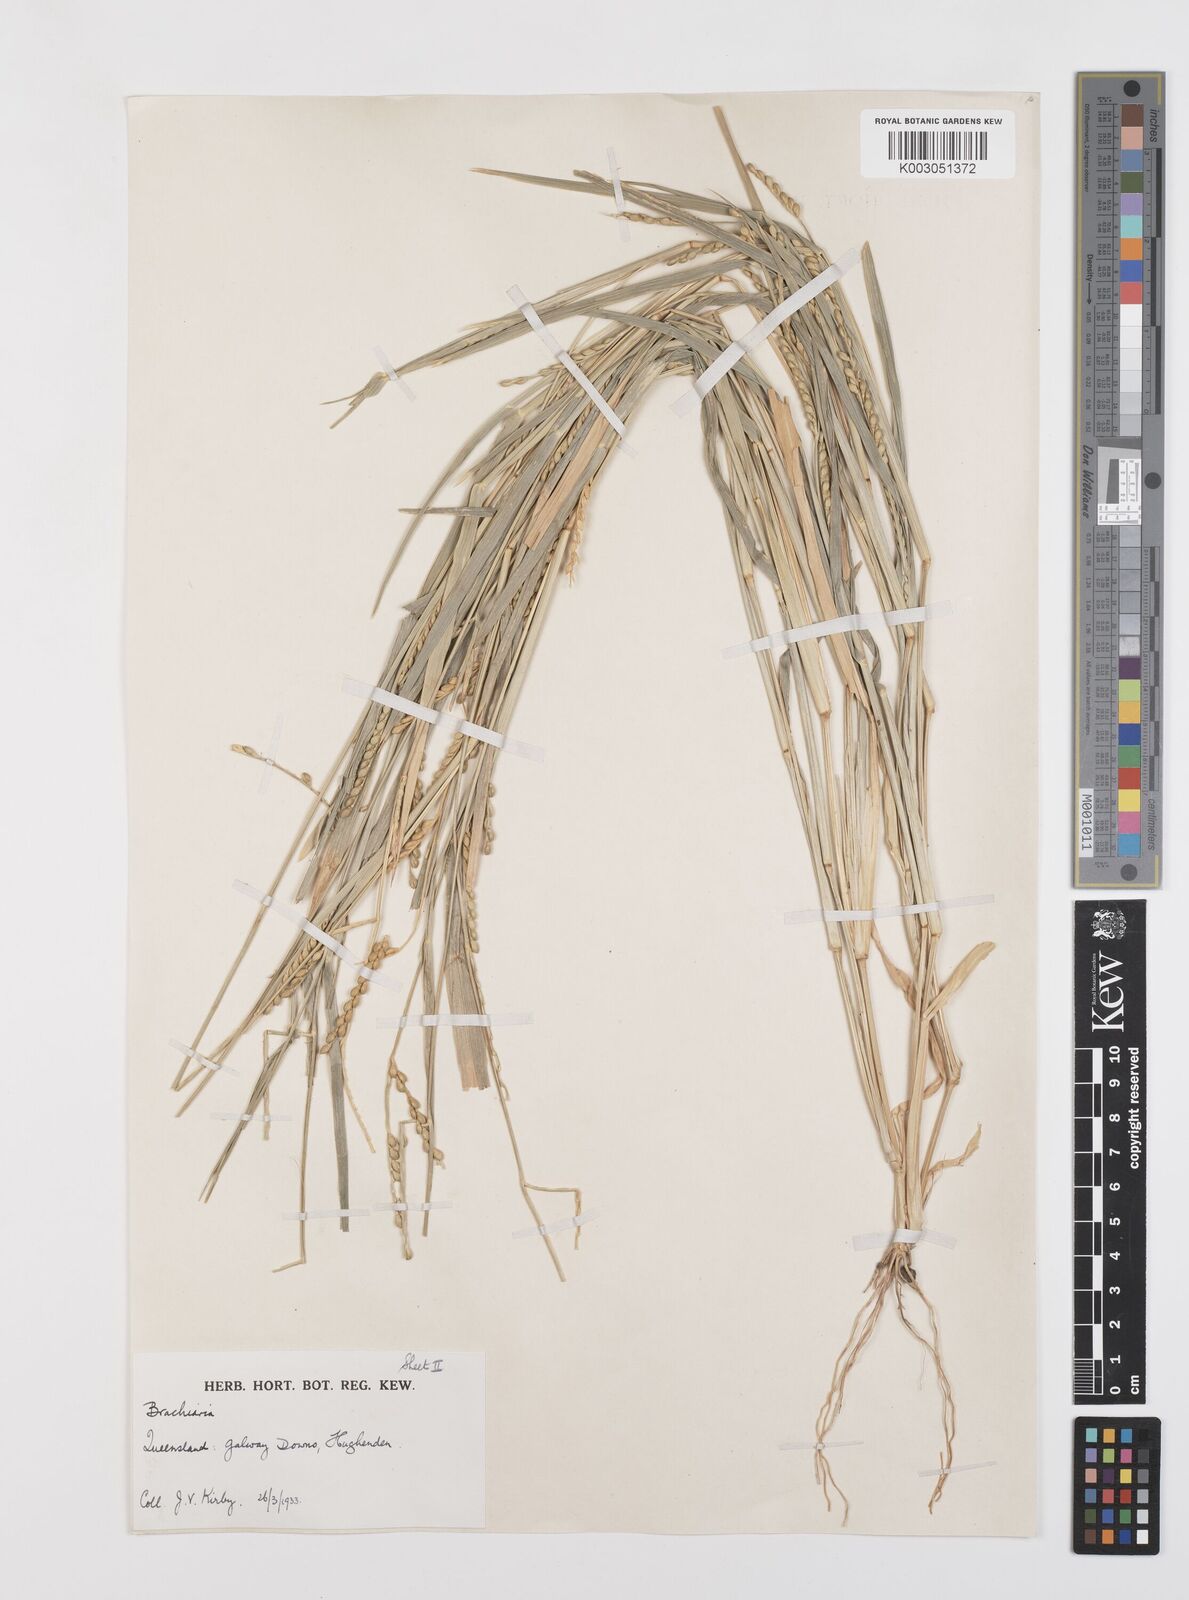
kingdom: Plantae
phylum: Tracheophyta
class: Liliopsida
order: Poales
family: Poaceae
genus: Brachiaria
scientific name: Brachiaria
